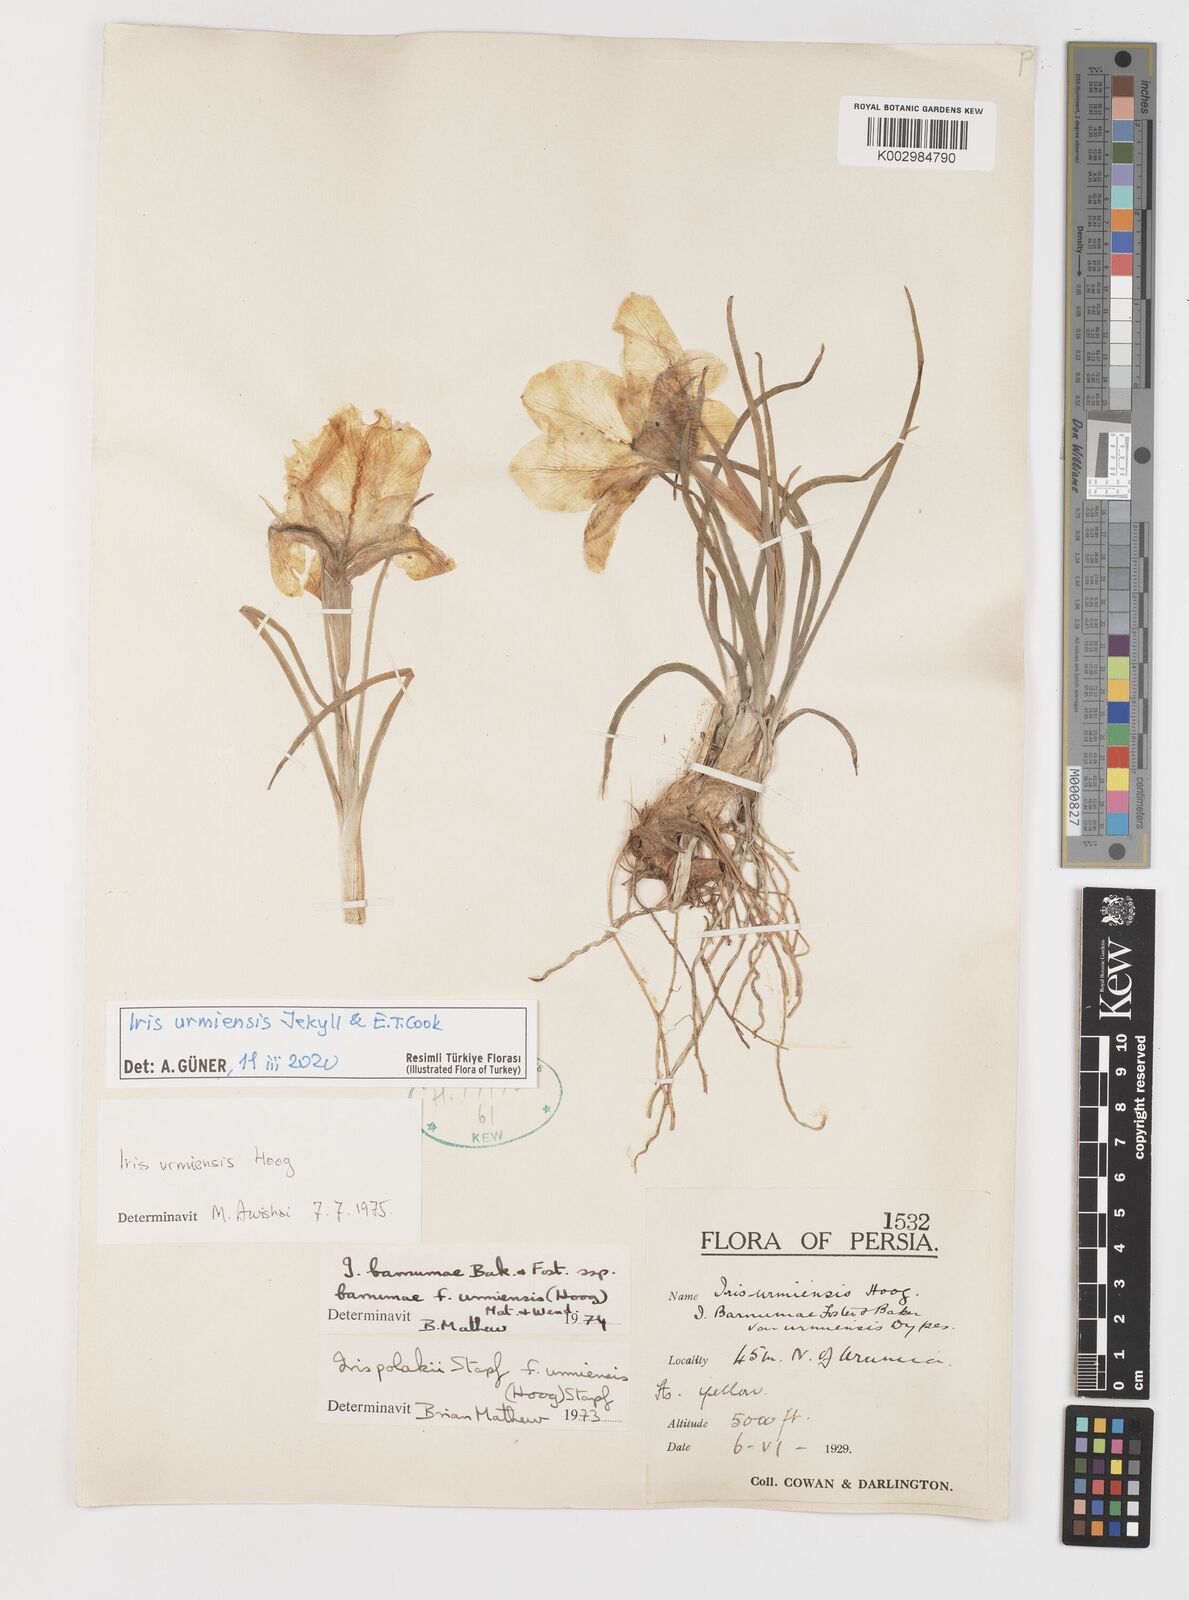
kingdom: Plantae
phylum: Tracheophyta
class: Liliopsida
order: Asparagales
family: Iridaceae
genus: Iris
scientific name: Iris urmiensis
